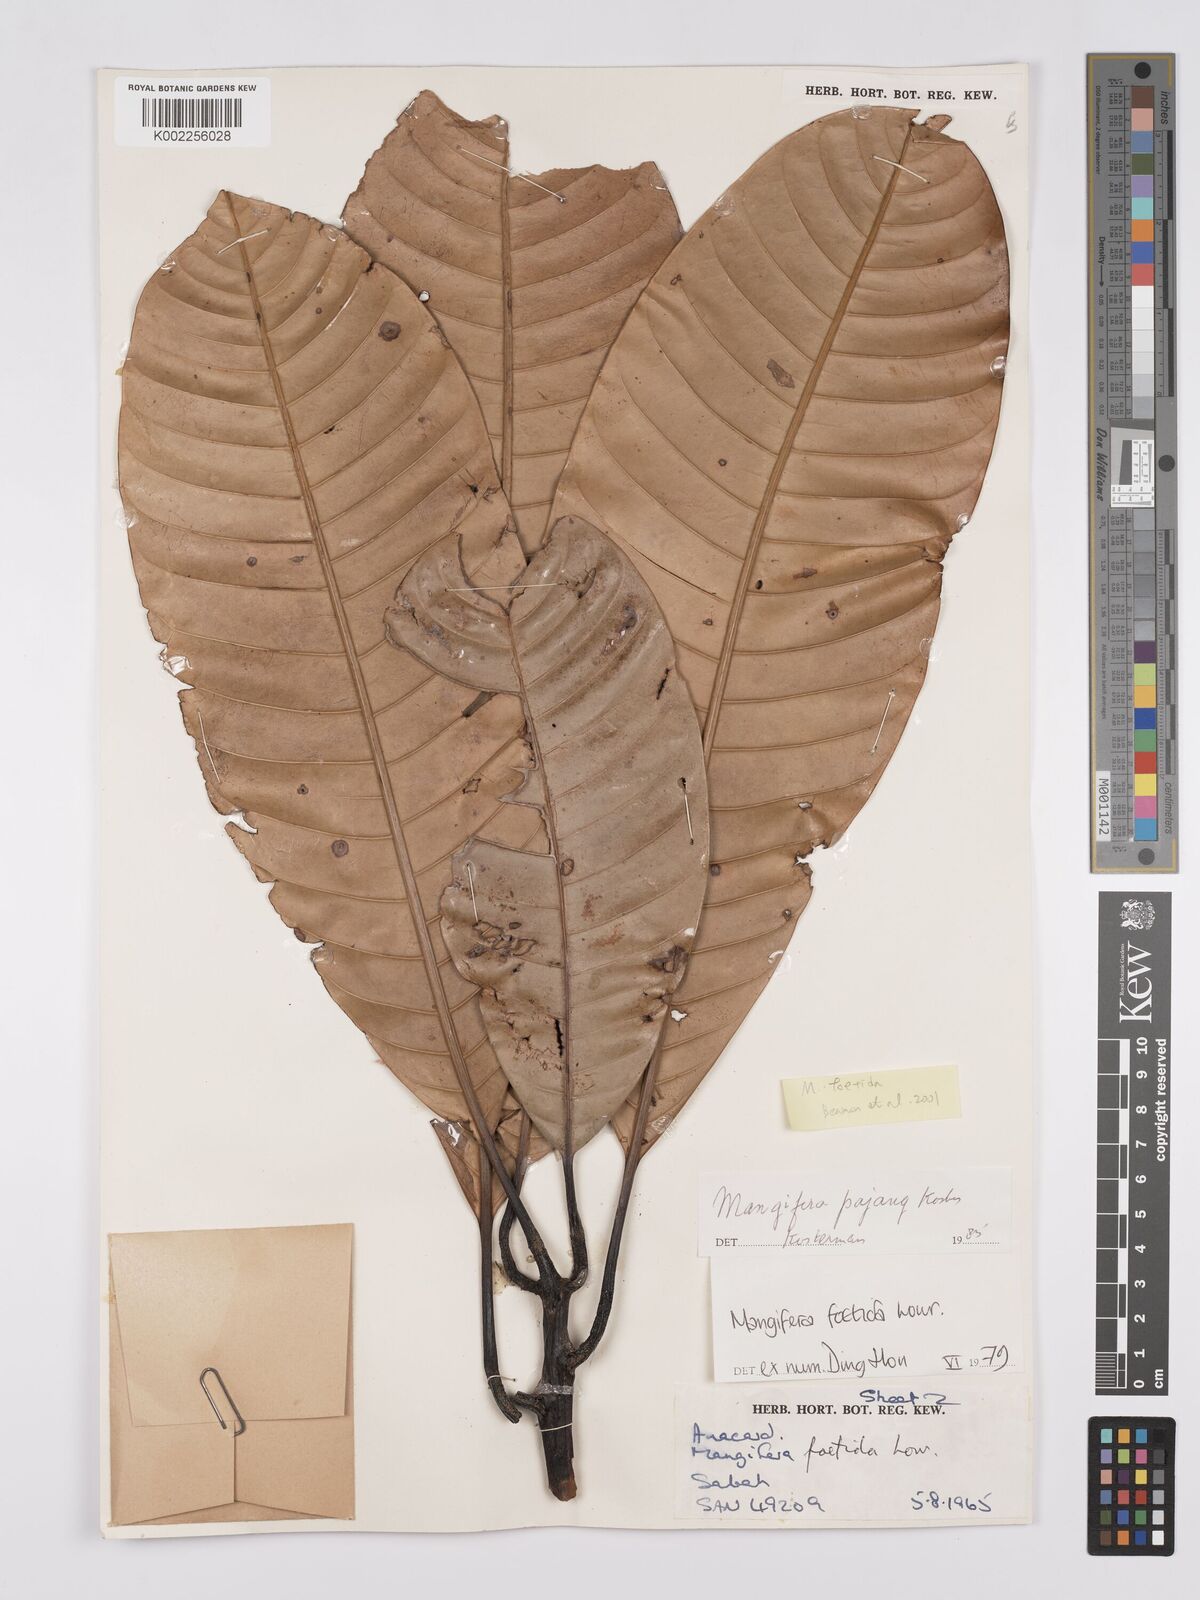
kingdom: Plantae
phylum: Tracheophyta
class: Magnoliopsida
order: Sapindales
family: Anacardiaceae
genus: Mangifera
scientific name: Mangifera
